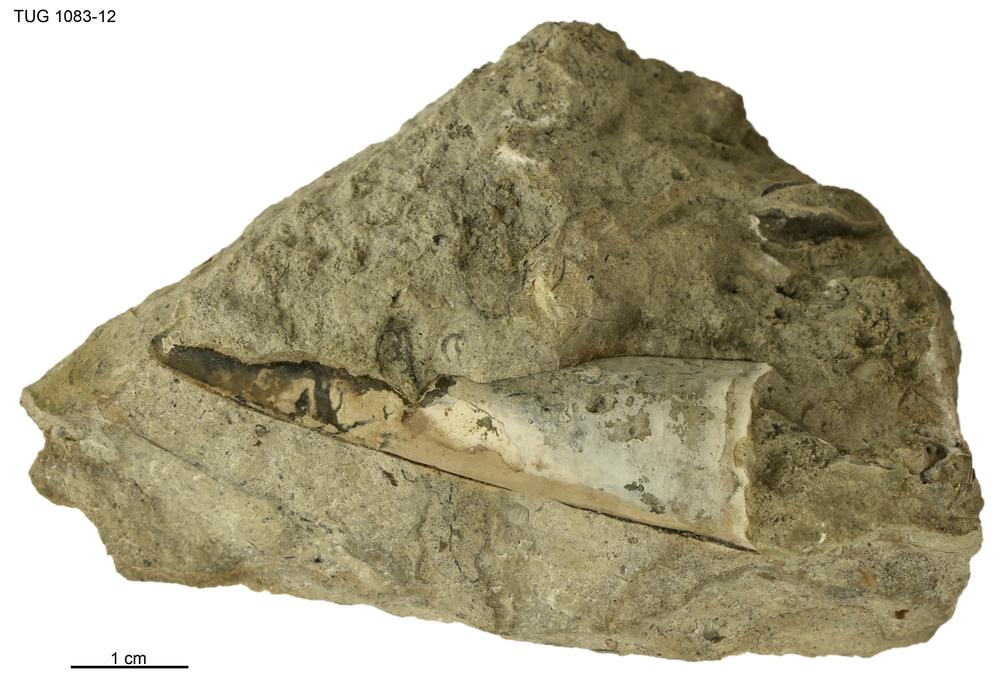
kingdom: Animalia
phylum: Annelida
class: Polychaeta
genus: Hyolithes
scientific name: Hyolithes
